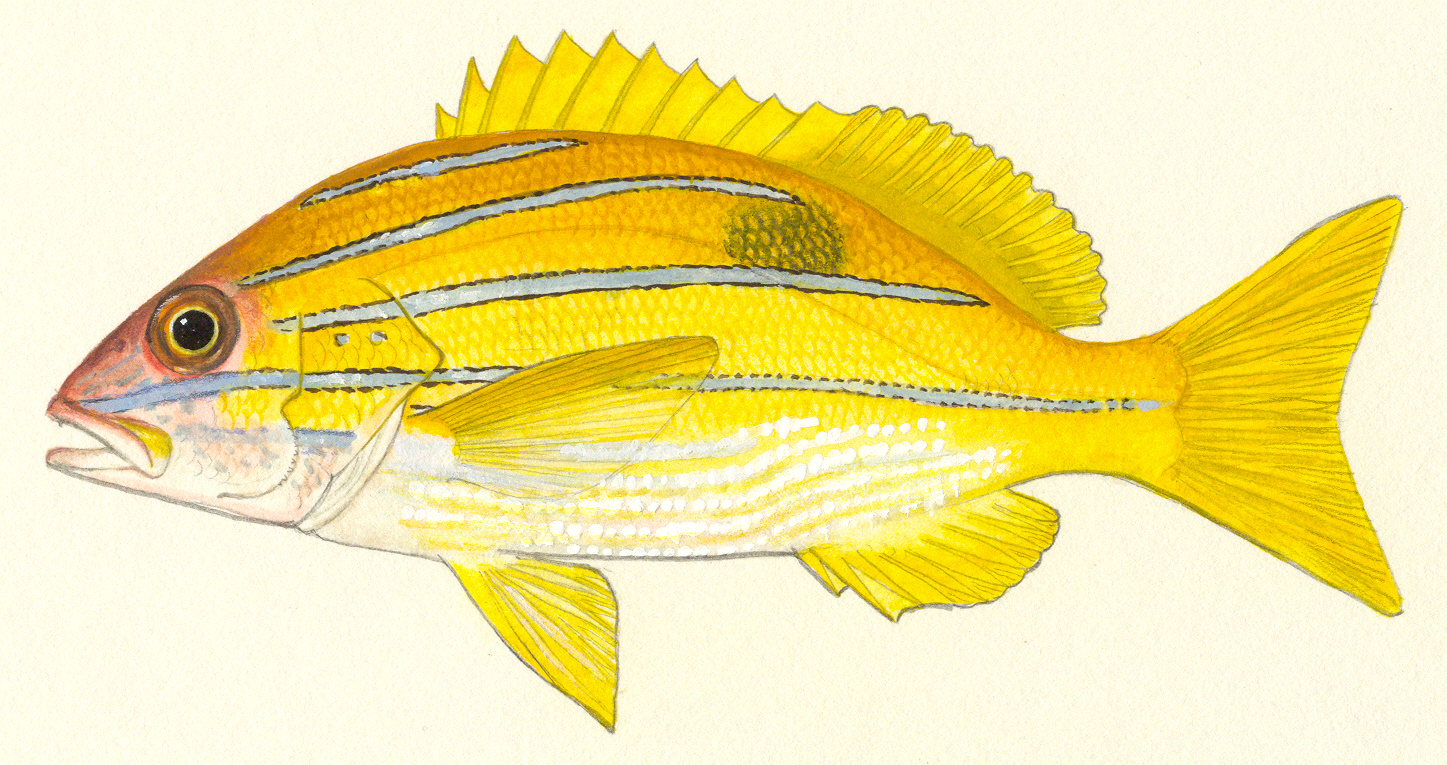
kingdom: Animalia
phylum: Chordata
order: Perciformes
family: Lutjanidae
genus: Lutjanus
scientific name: Lutjanus kasmira
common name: Common bluestripe snapper
